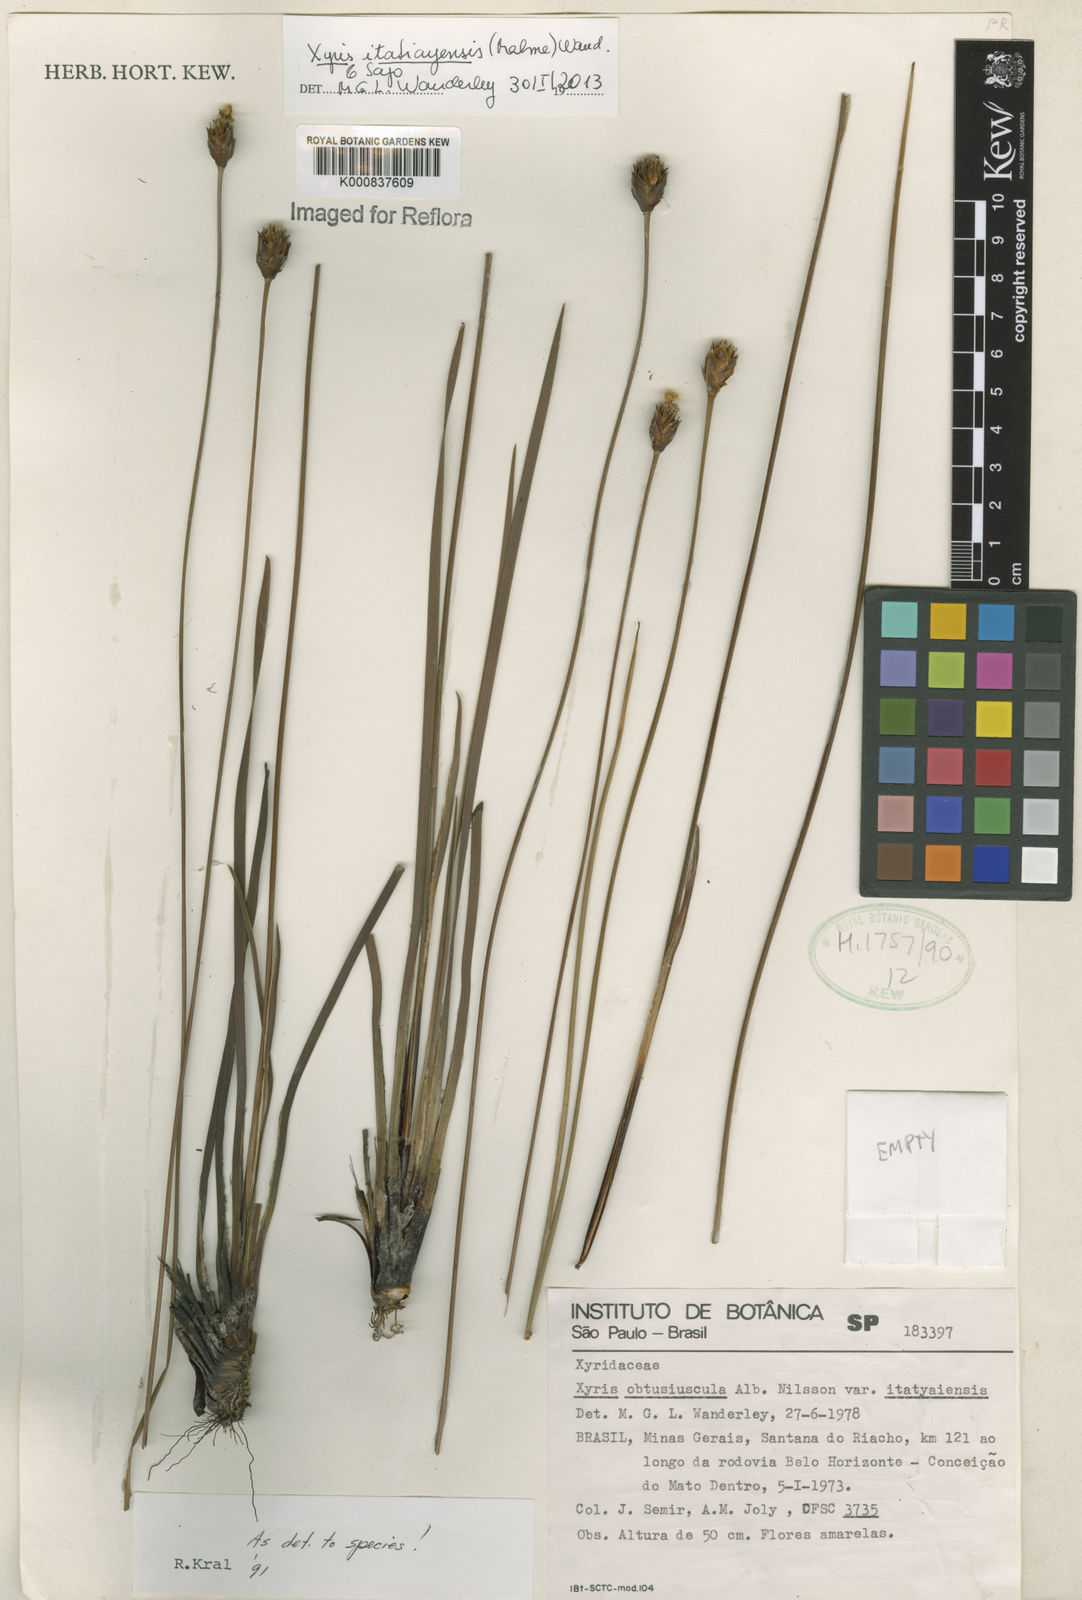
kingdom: Plantae
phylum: Tracheophyta
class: Liliopsida
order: Poales
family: Xyridaceae
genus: Xyris
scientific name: Xyris itatiayensis
